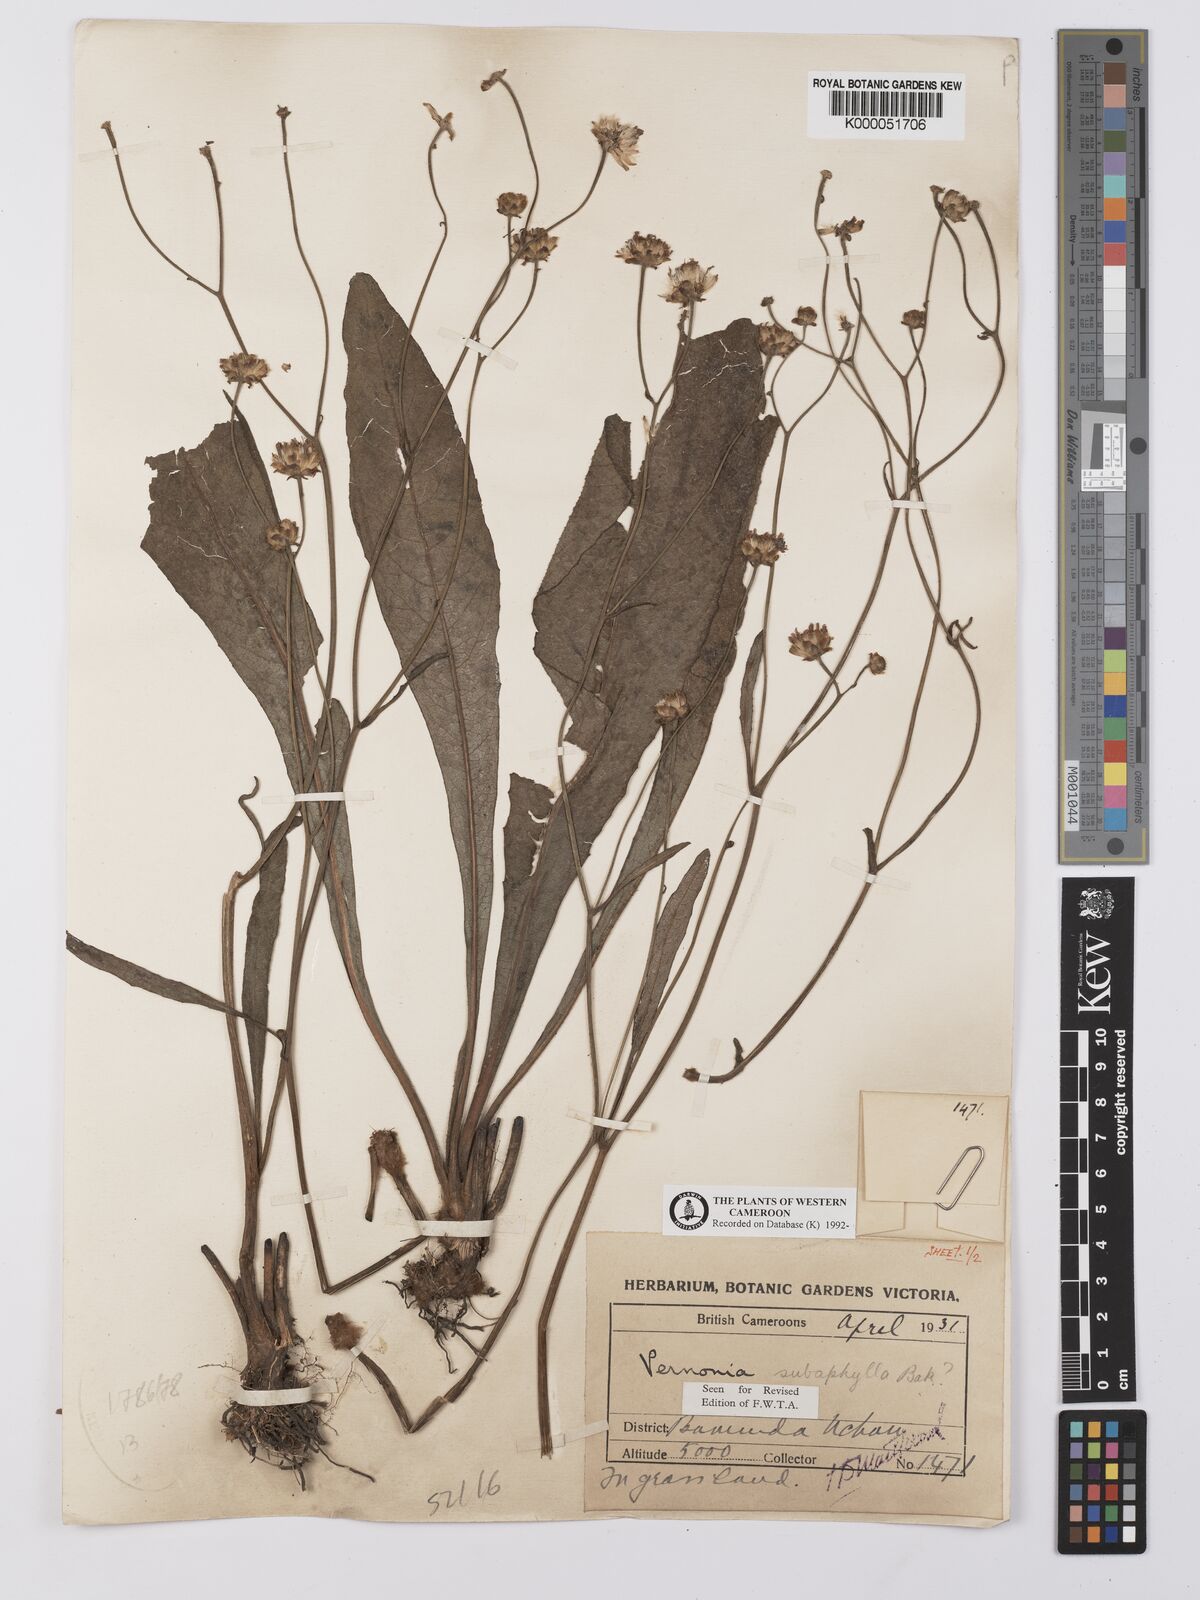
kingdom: Plantae
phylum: Tracheophyta
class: Magnoliopsida
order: Asterales
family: Asteraceae
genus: Vernonella
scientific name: Vernonella subaphylla
